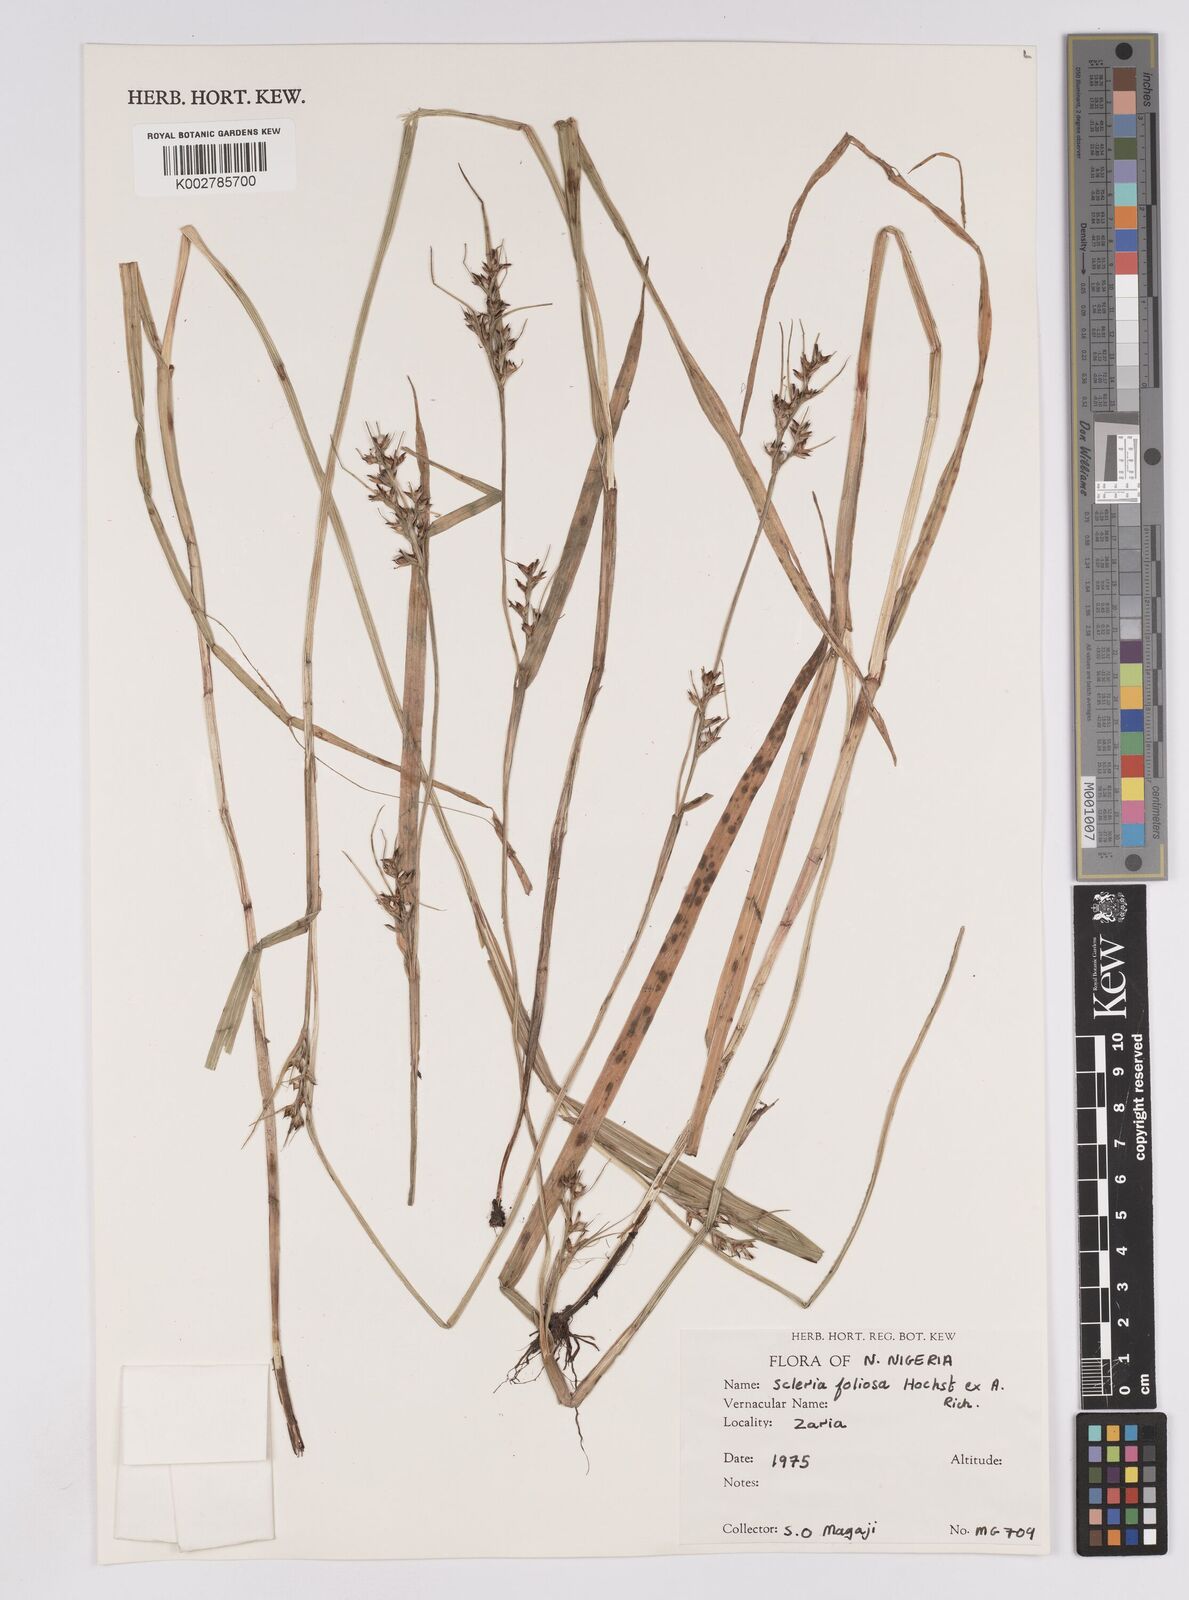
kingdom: Plantae
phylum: Tracheophyta
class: Liliopsida
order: Poales
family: Cyperaceae
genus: Scleria
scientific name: Scleria foliosa
